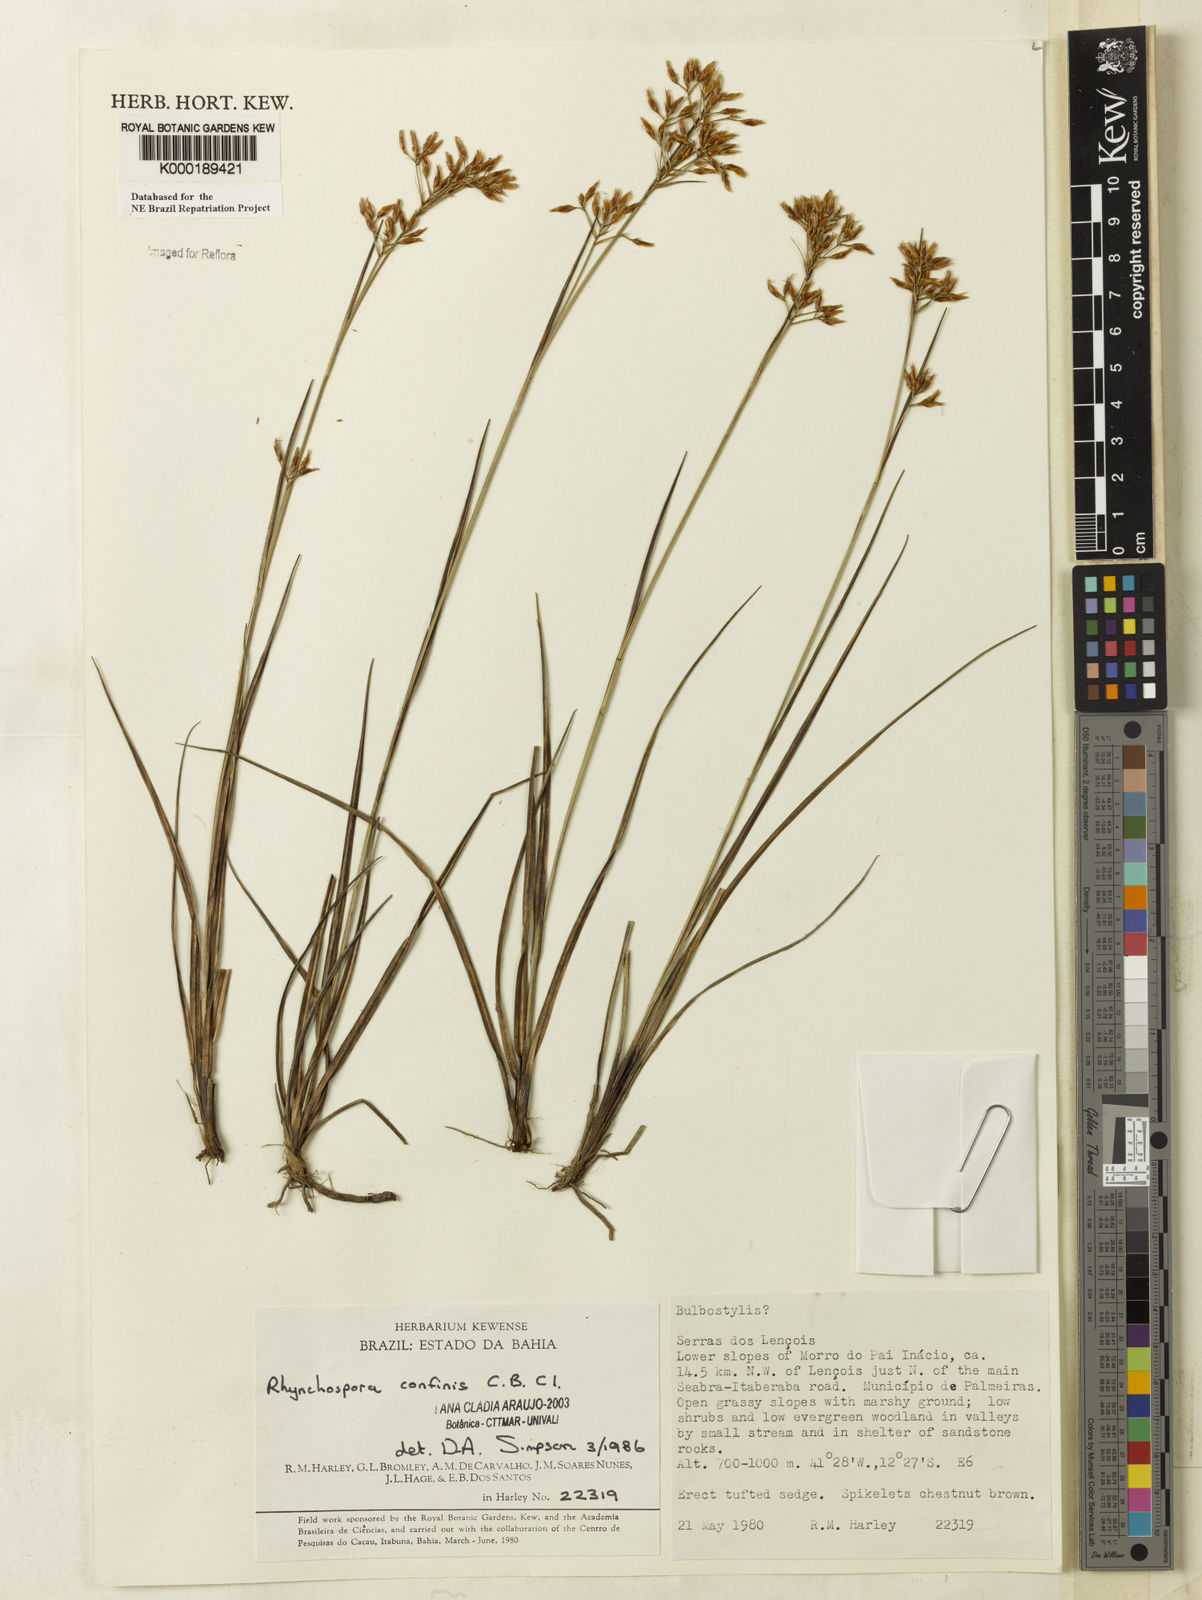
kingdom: Plantae
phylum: Tracheophyta
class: Liliopsida
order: Poales
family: Cyperaceae
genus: Rhynchospora
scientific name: Rhynchospora confinis
